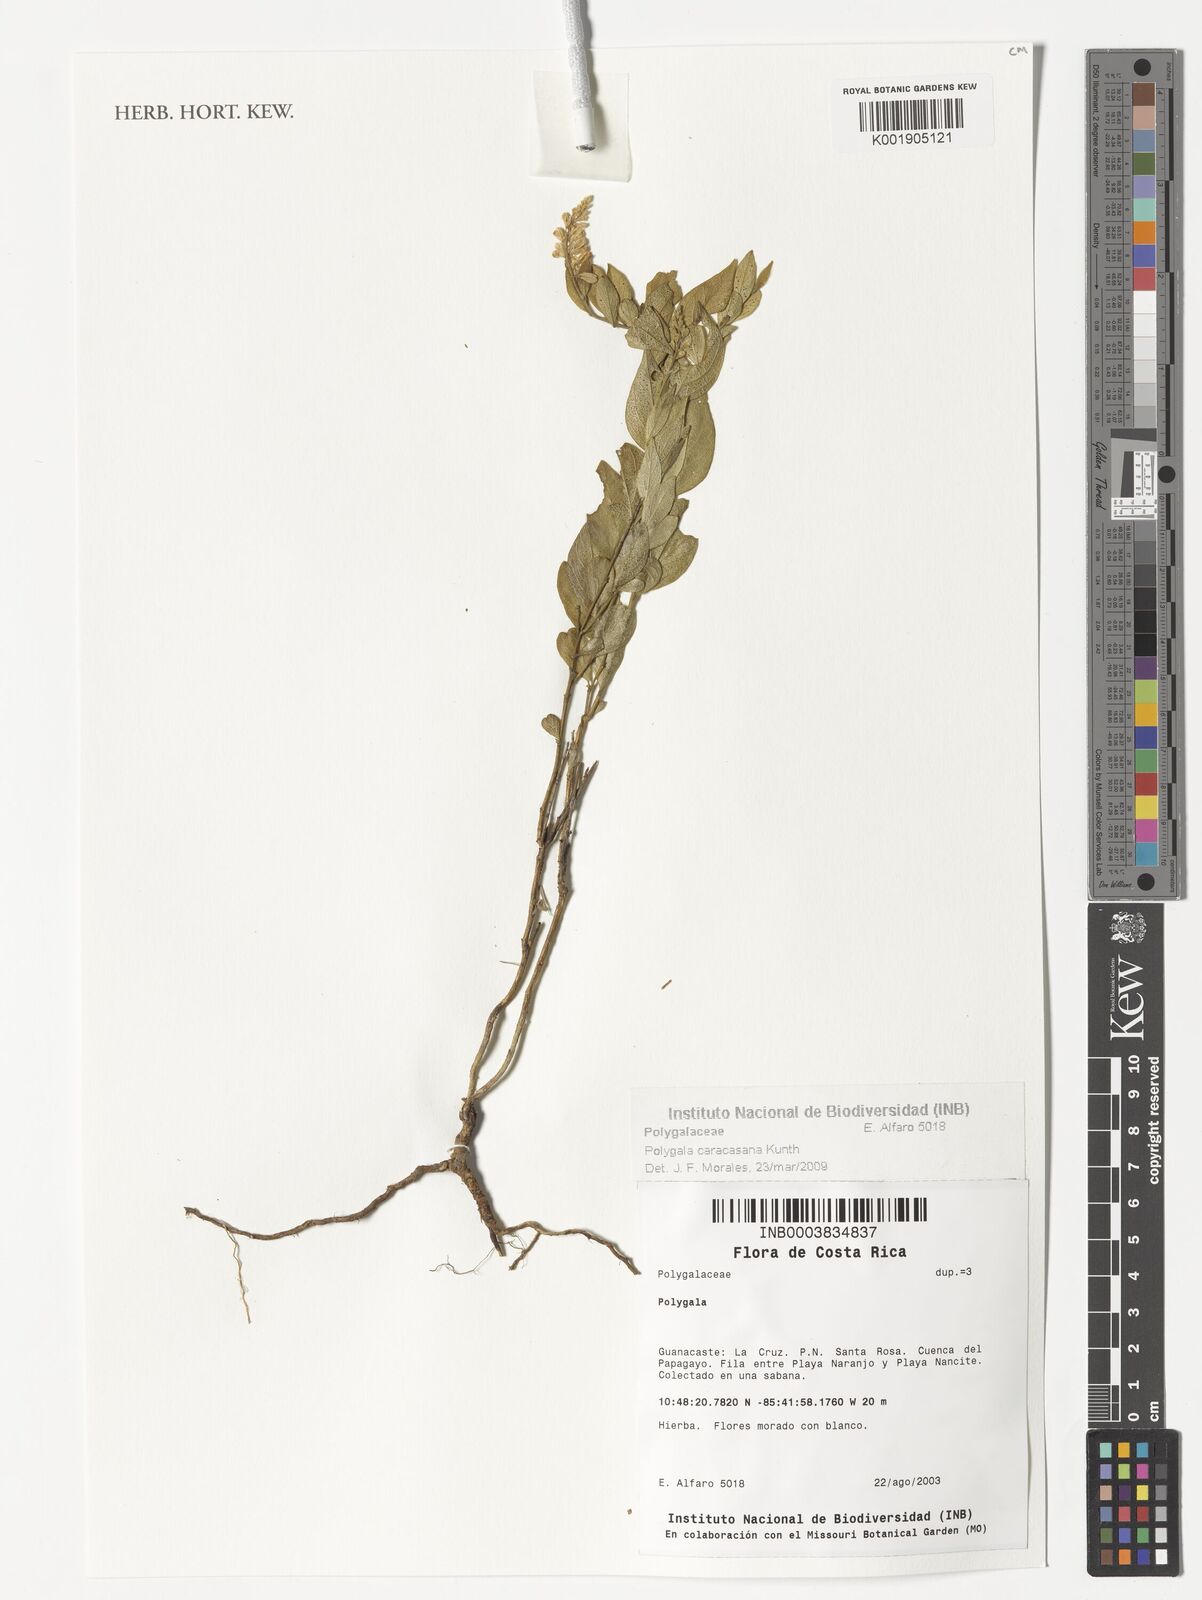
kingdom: Plantae
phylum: Tracheophyta
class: Magnoliopsida
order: Fabales
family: Polygalaceae
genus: Hebecarpa
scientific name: Hebecarpa caracasana
